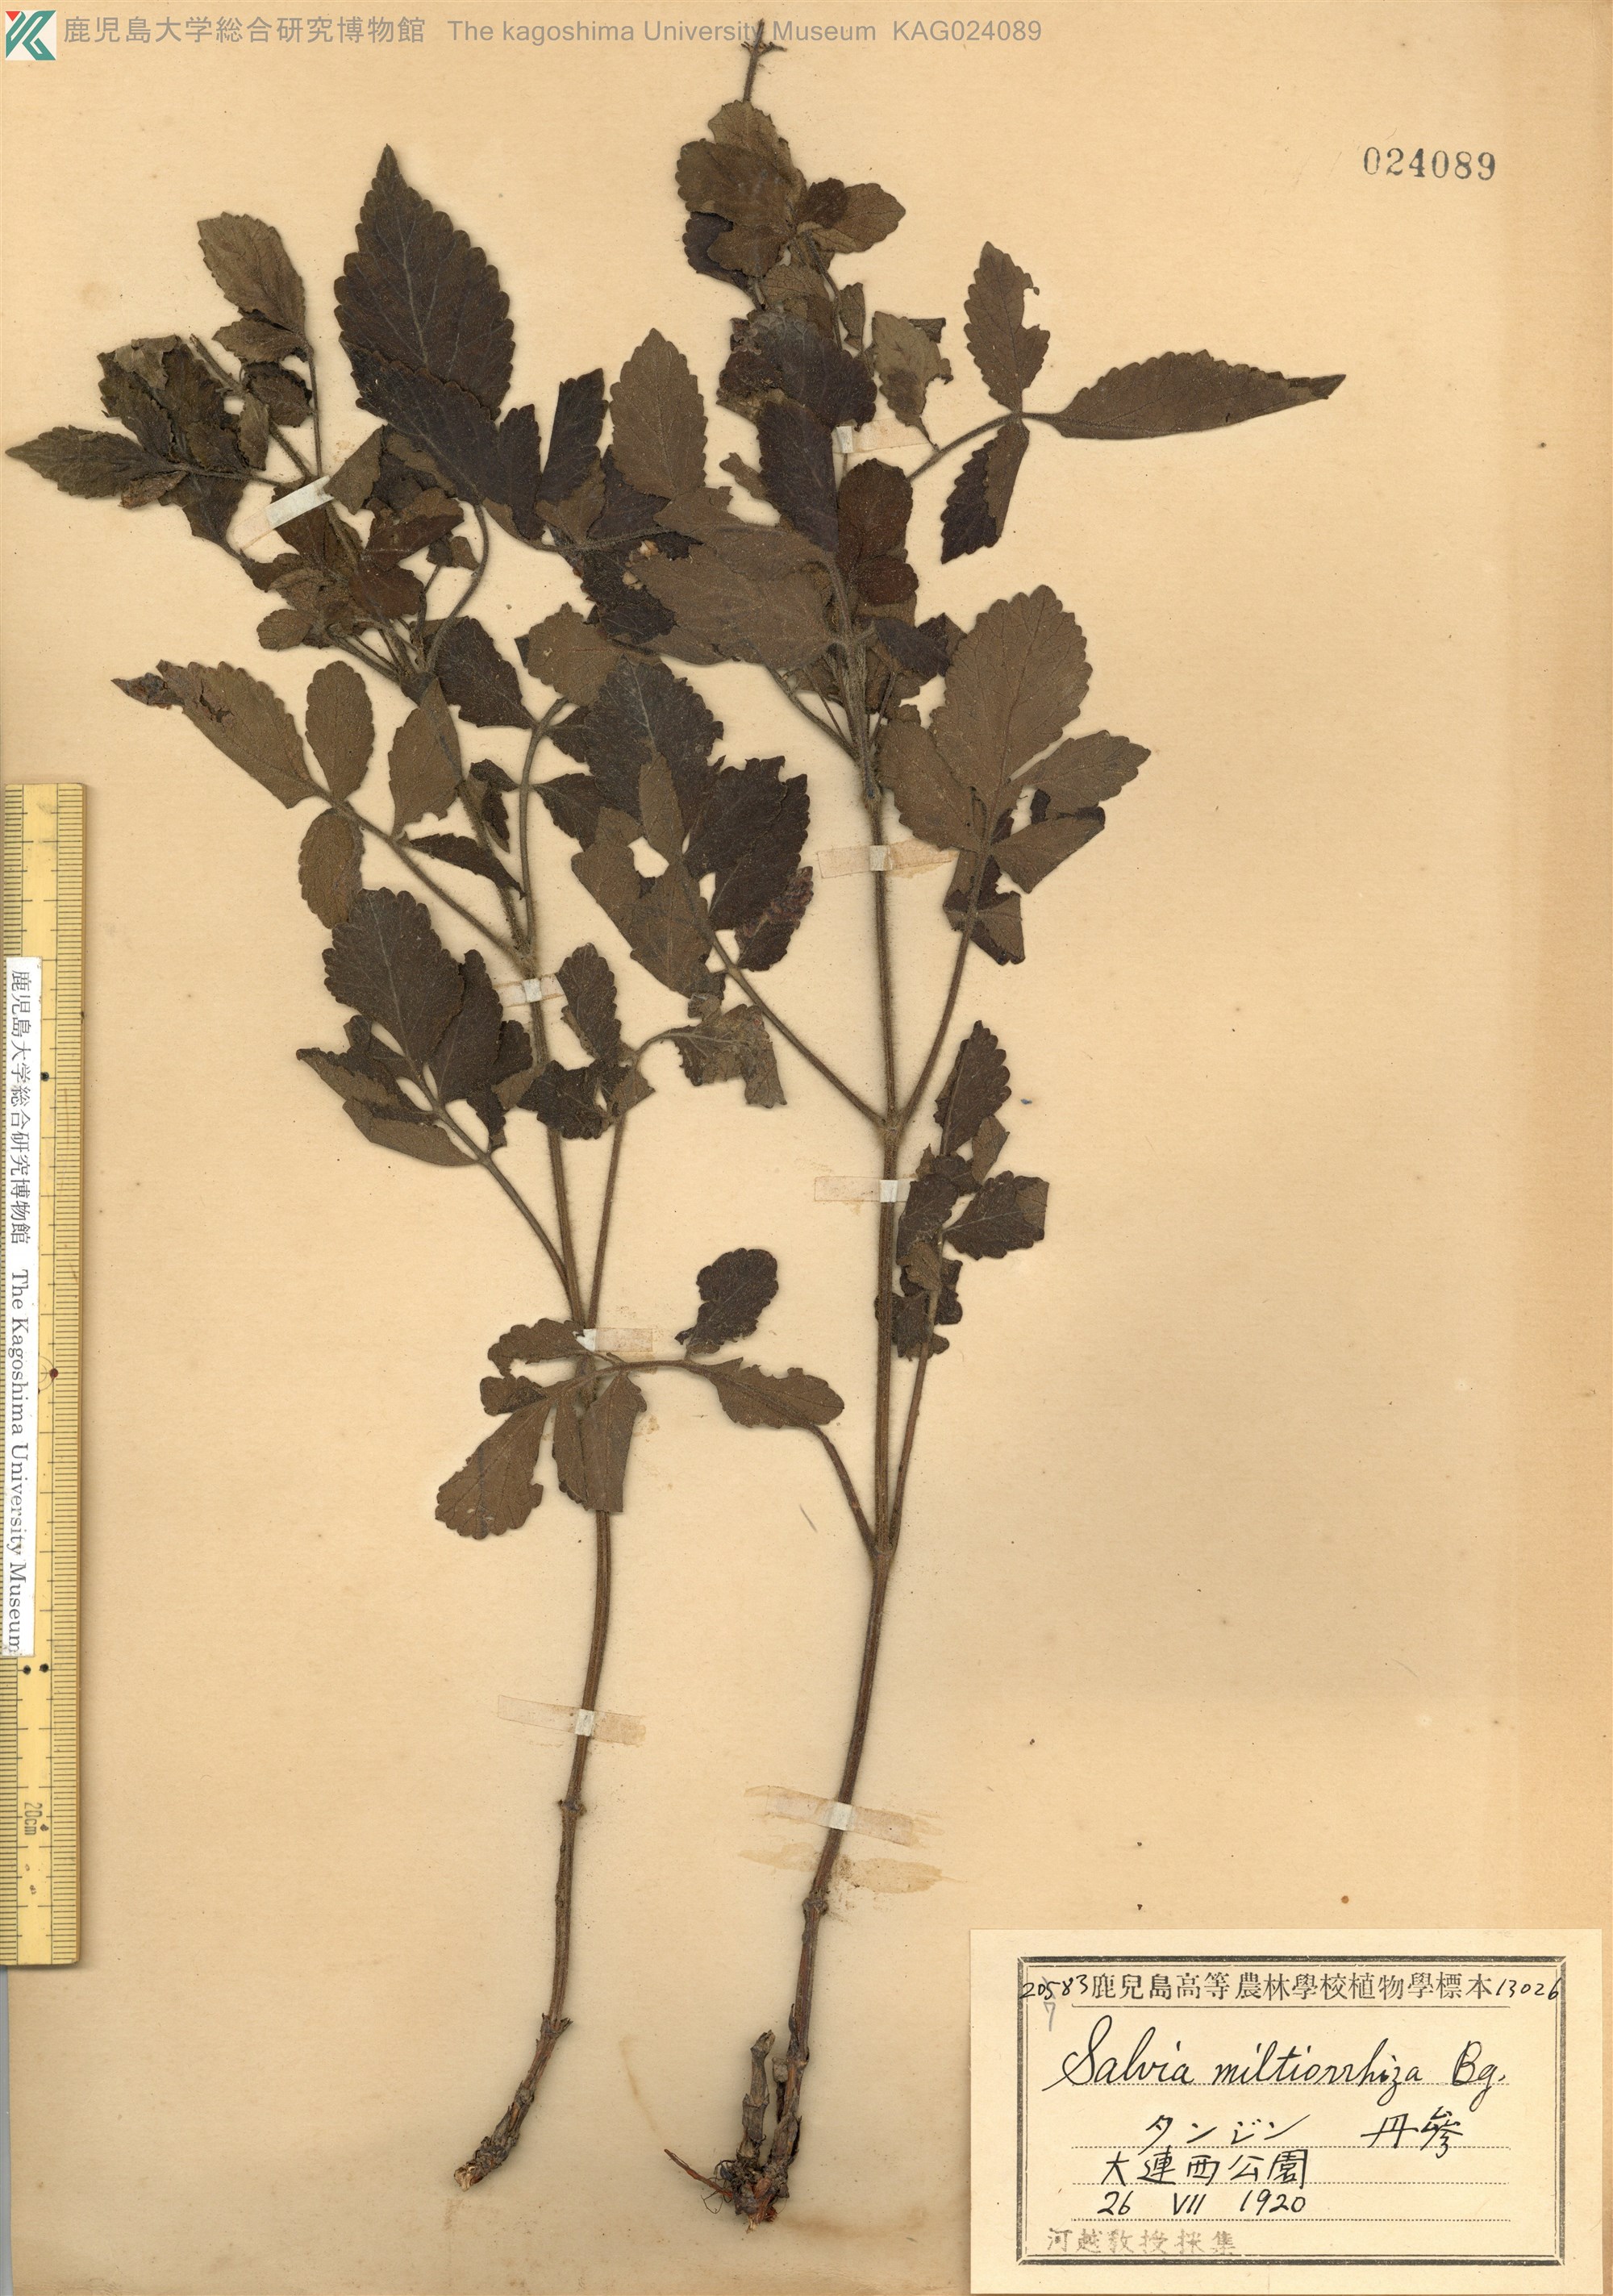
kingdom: Plantae
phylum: Tracheophyta
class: Magnoliopsida
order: Lamiales
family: Lamiaceae
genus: Salvia
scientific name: Salvia miltiorrhiza
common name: Redroot sage
